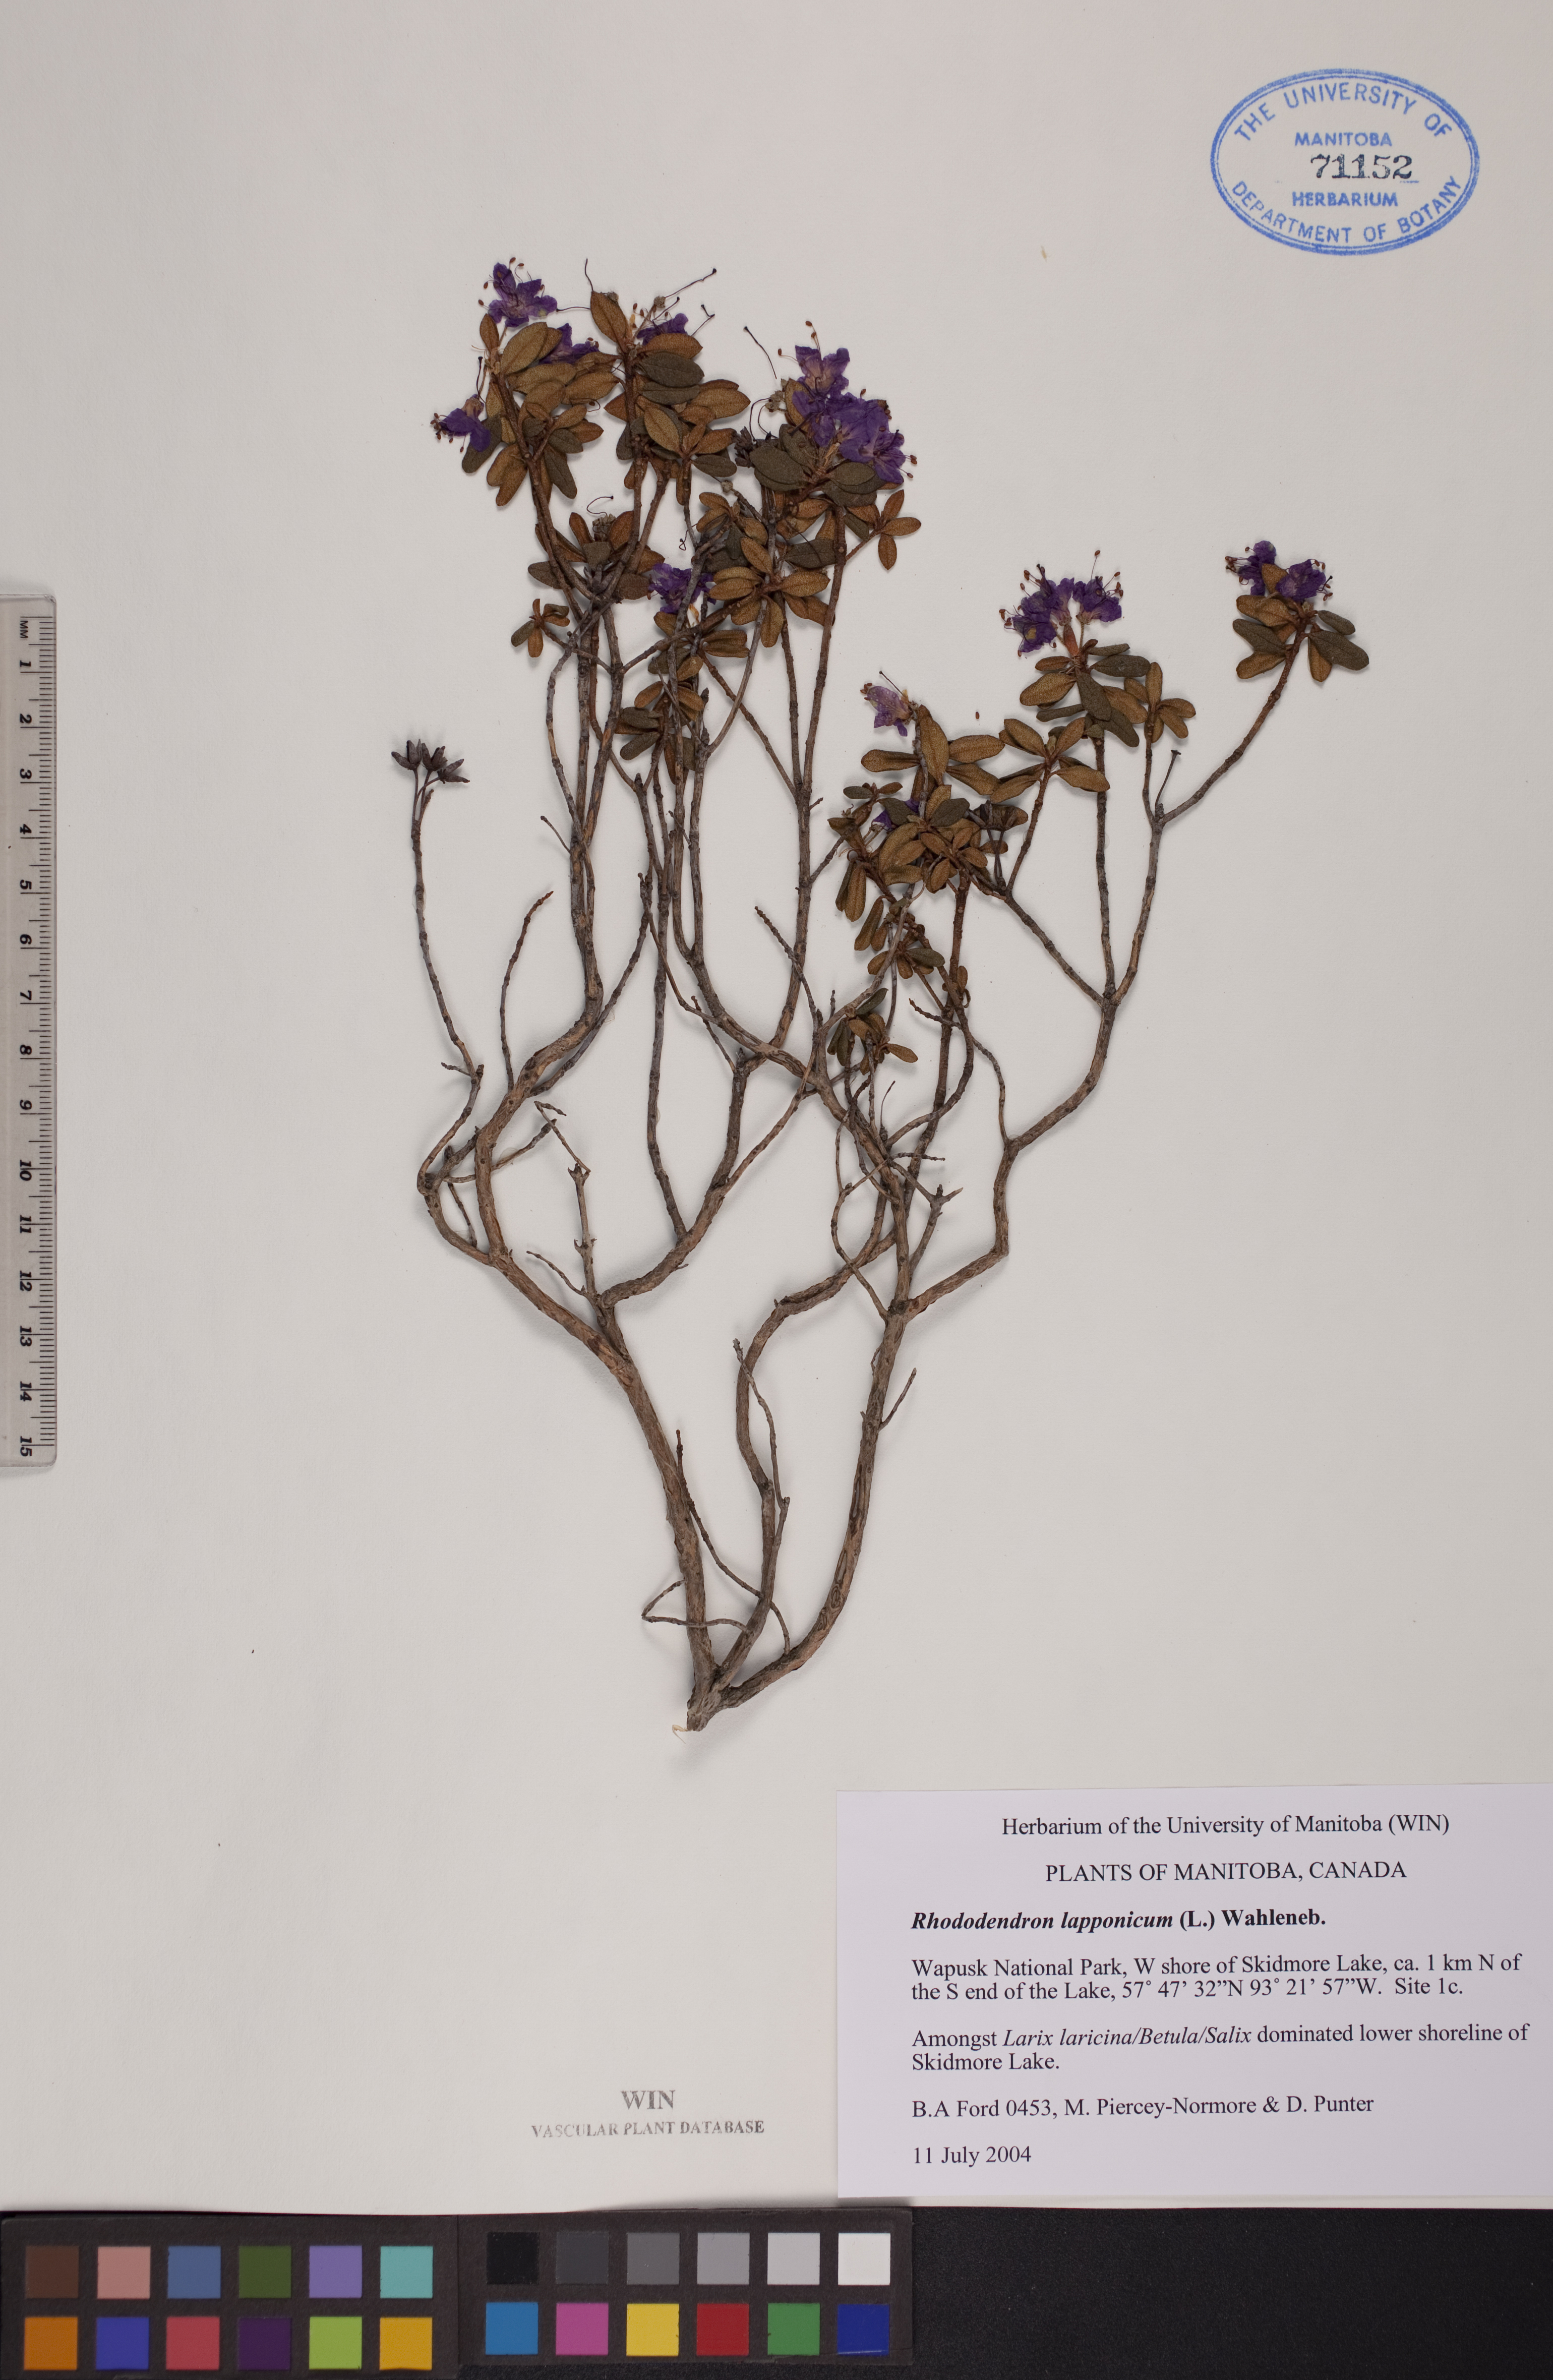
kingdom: Plantae
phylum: Tracheophyta
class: Magnoliopsida
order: Ericales
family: Ericaceae
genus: Rhododendron
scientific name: Rhododendron lapponicum
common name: Lapland rhododendron
